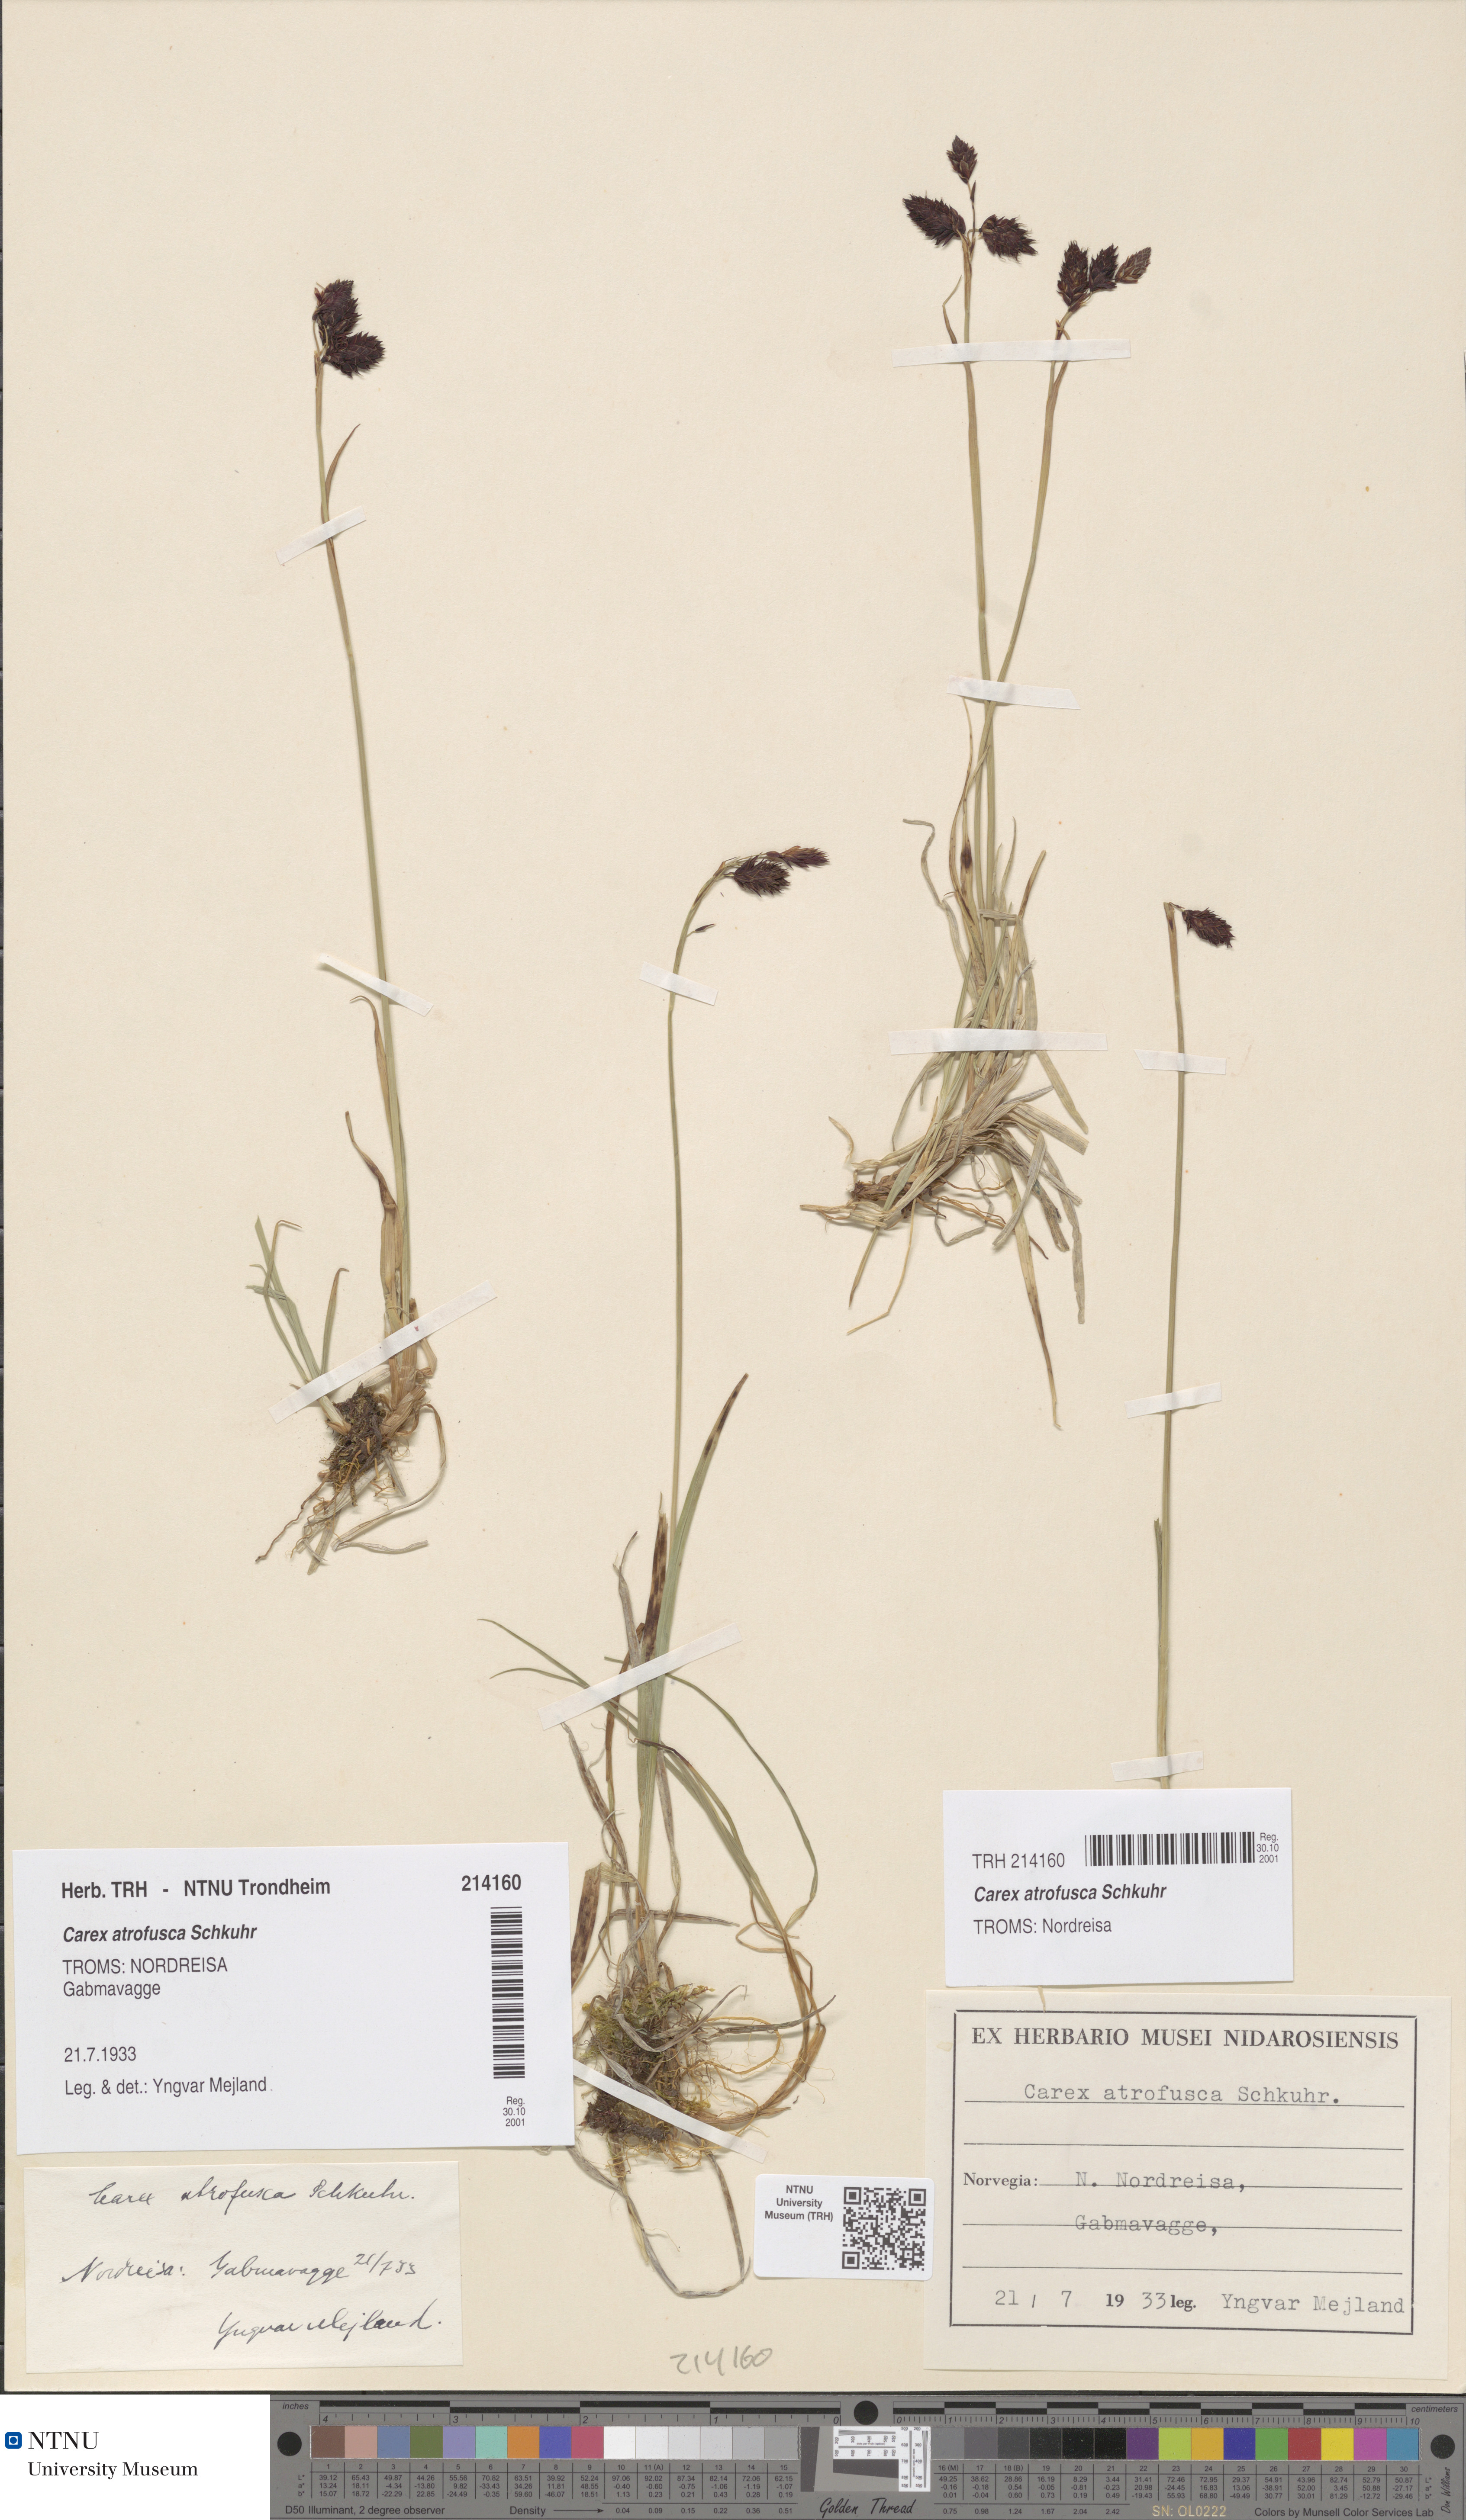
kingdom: Plantae
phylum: Tracheophyta
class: Liliopsida
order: Poales
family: Cyperaceae
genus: Carex
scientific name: Carex atrofusca
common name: Scorched alpine-sedge
